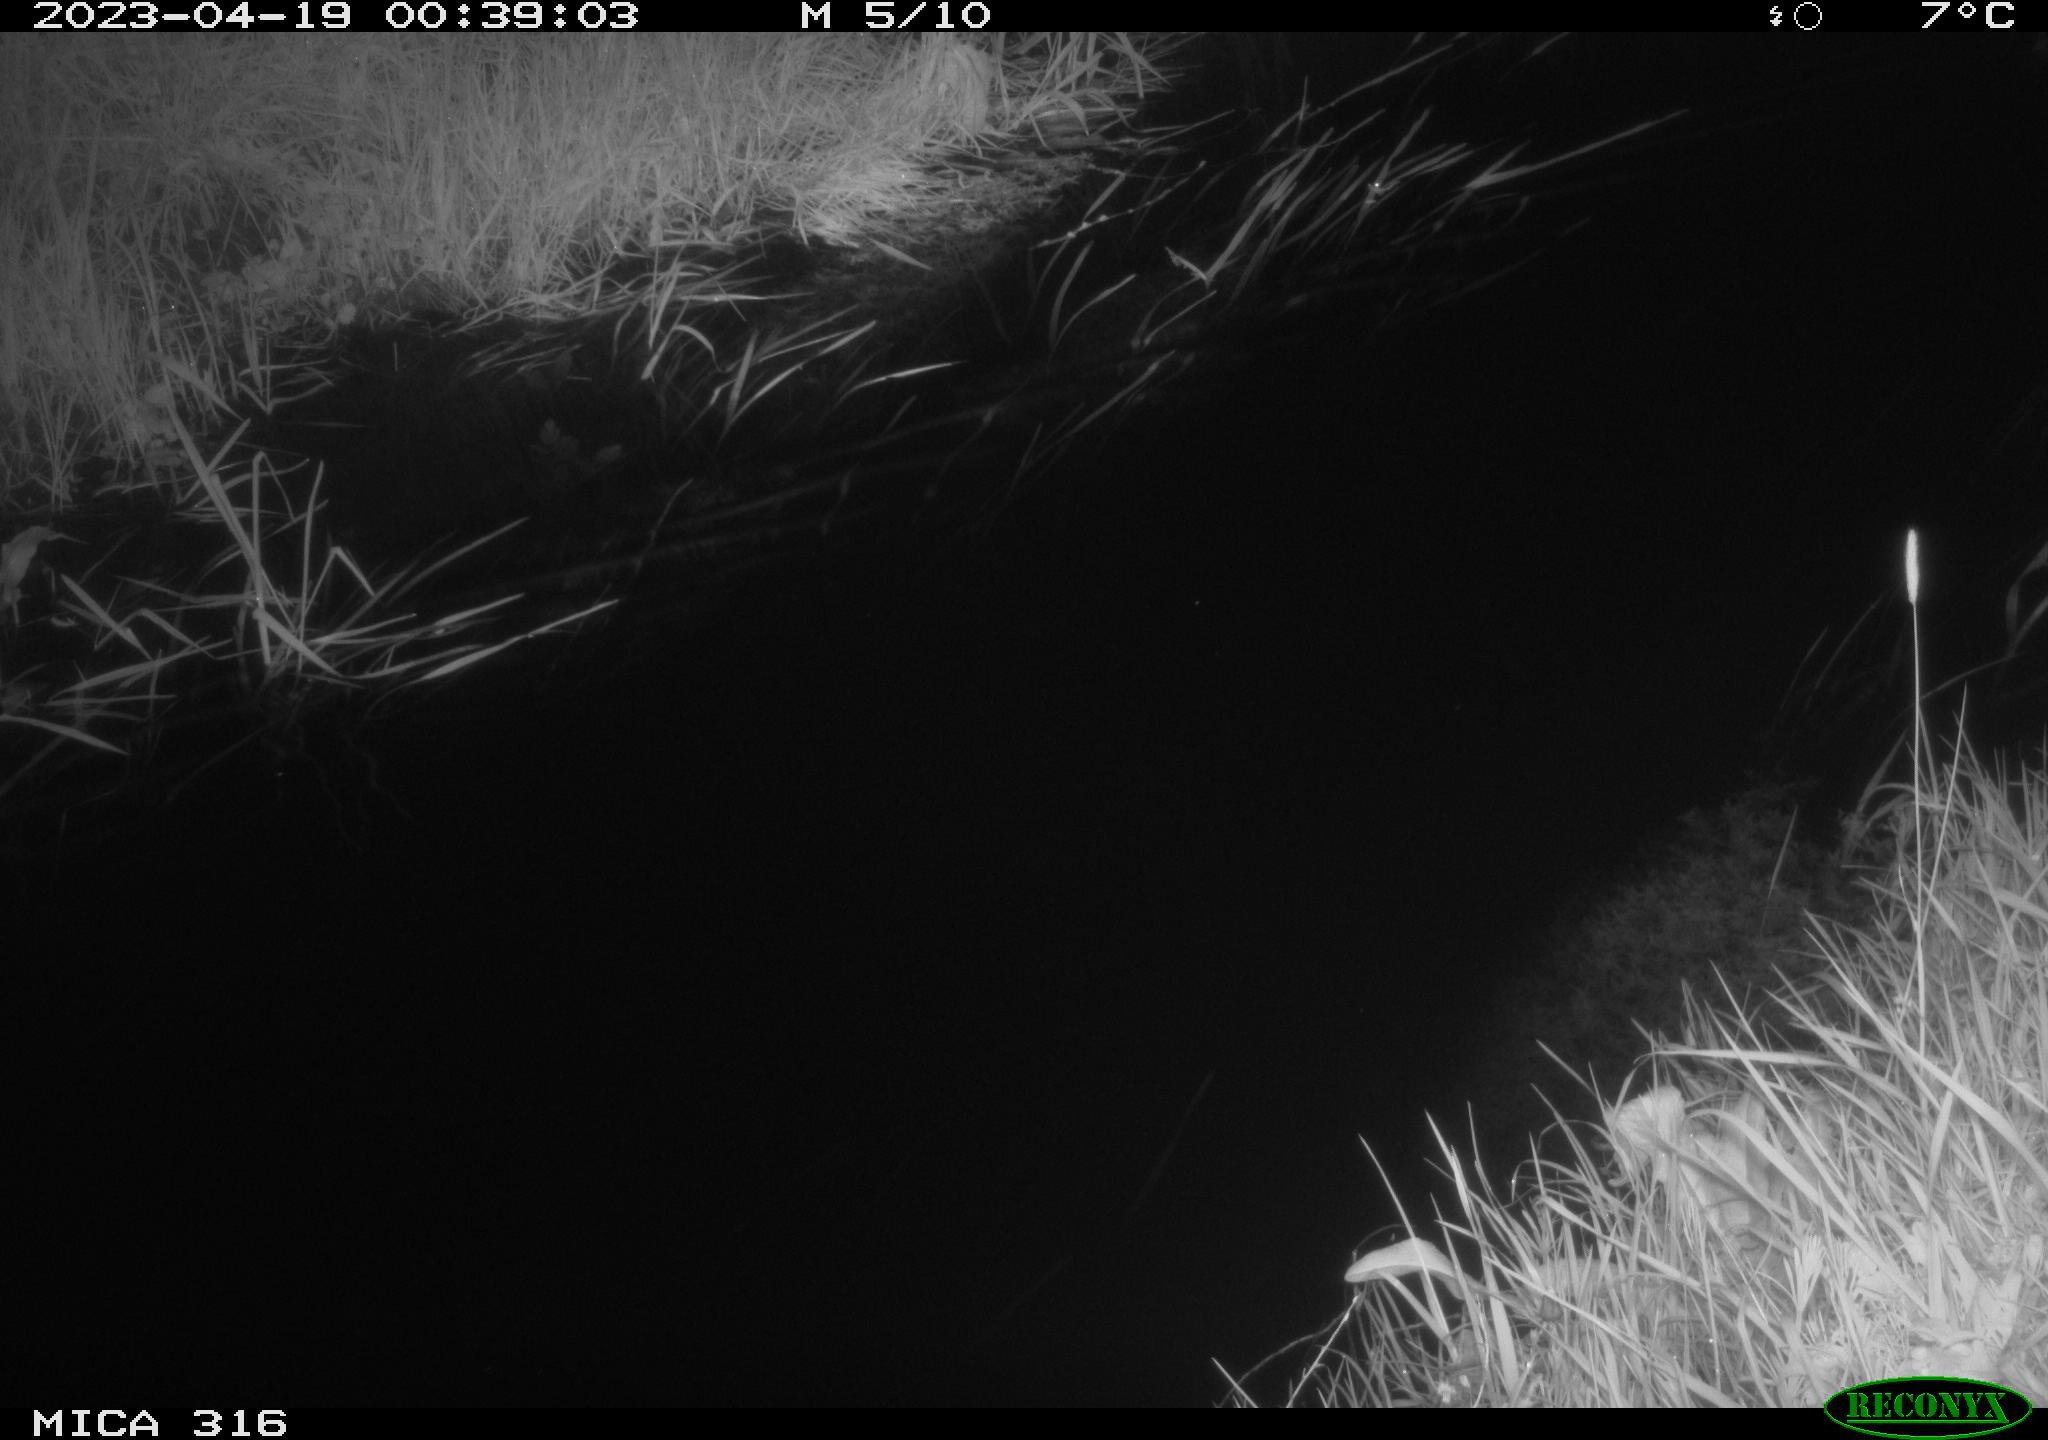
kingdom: Animalia
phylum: Chordata
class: Aves
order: Anseriformes
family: Anatidae
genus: Anas
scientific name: Anas
